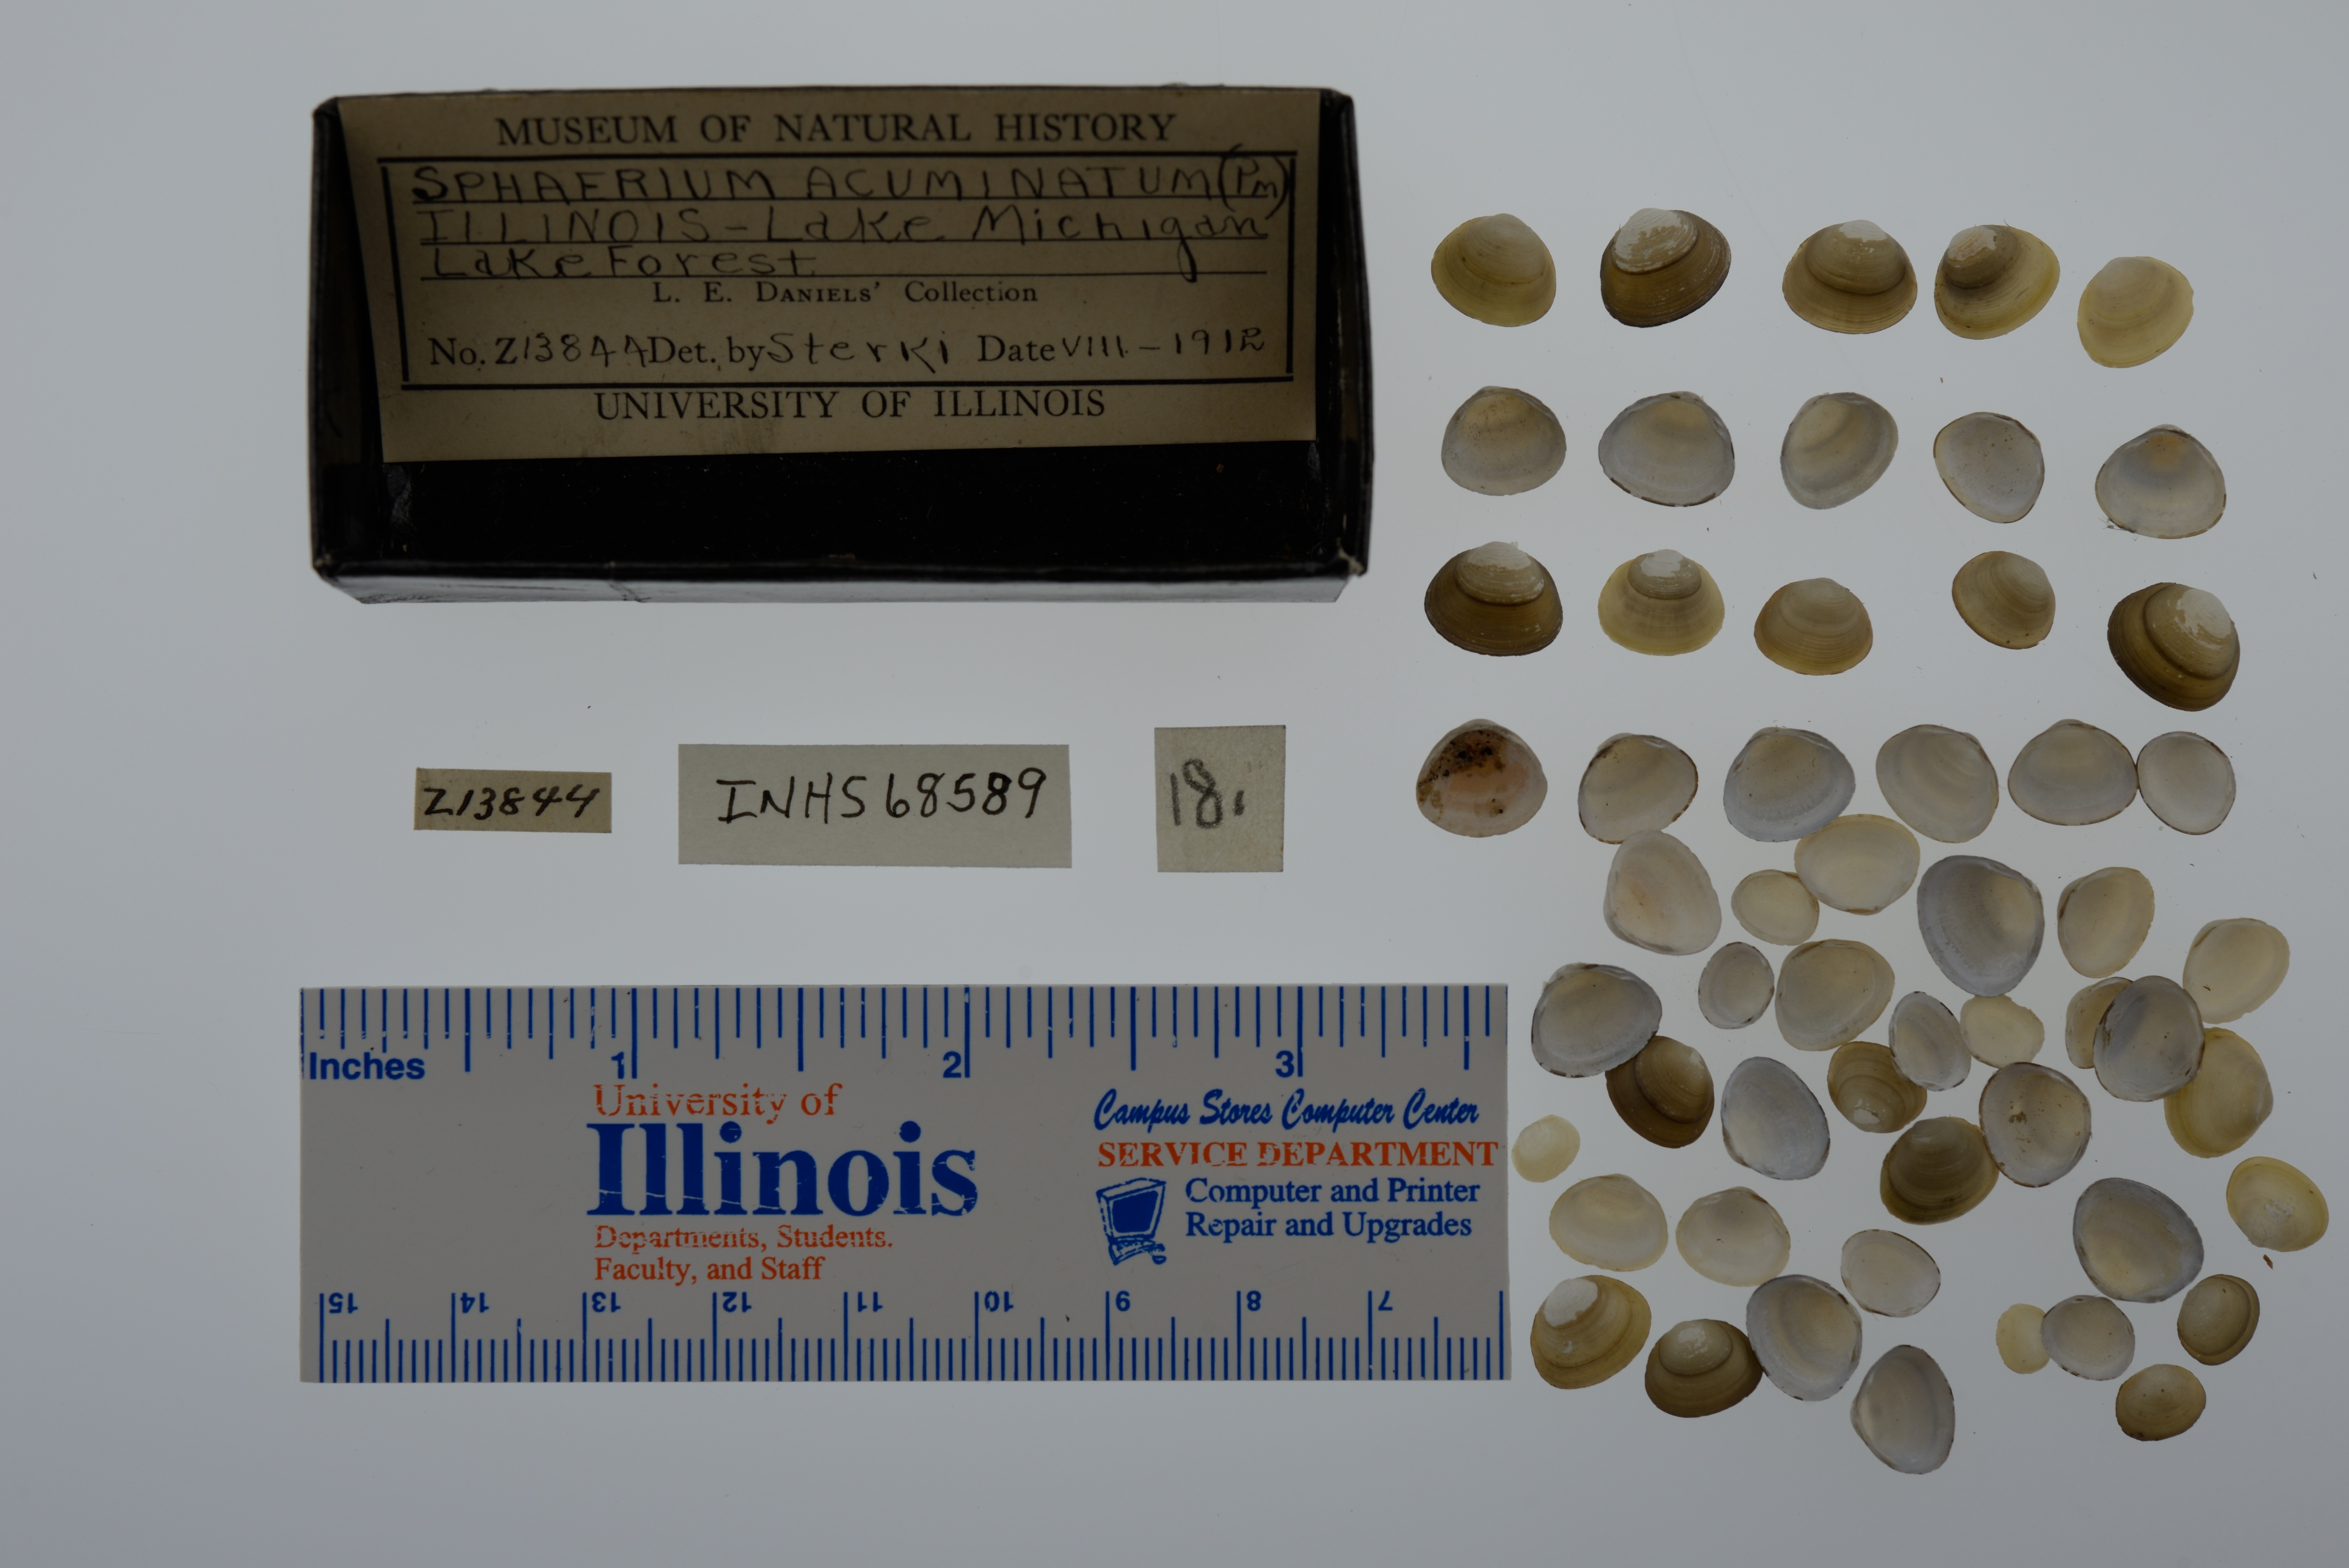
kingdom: Animalia
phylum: Mollusca
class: Bivalvia
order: Sphaeriida
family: Sphaeriidae
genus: Sphaerium
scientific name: Sphaerium striatinum
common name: Striated fingernailclam
